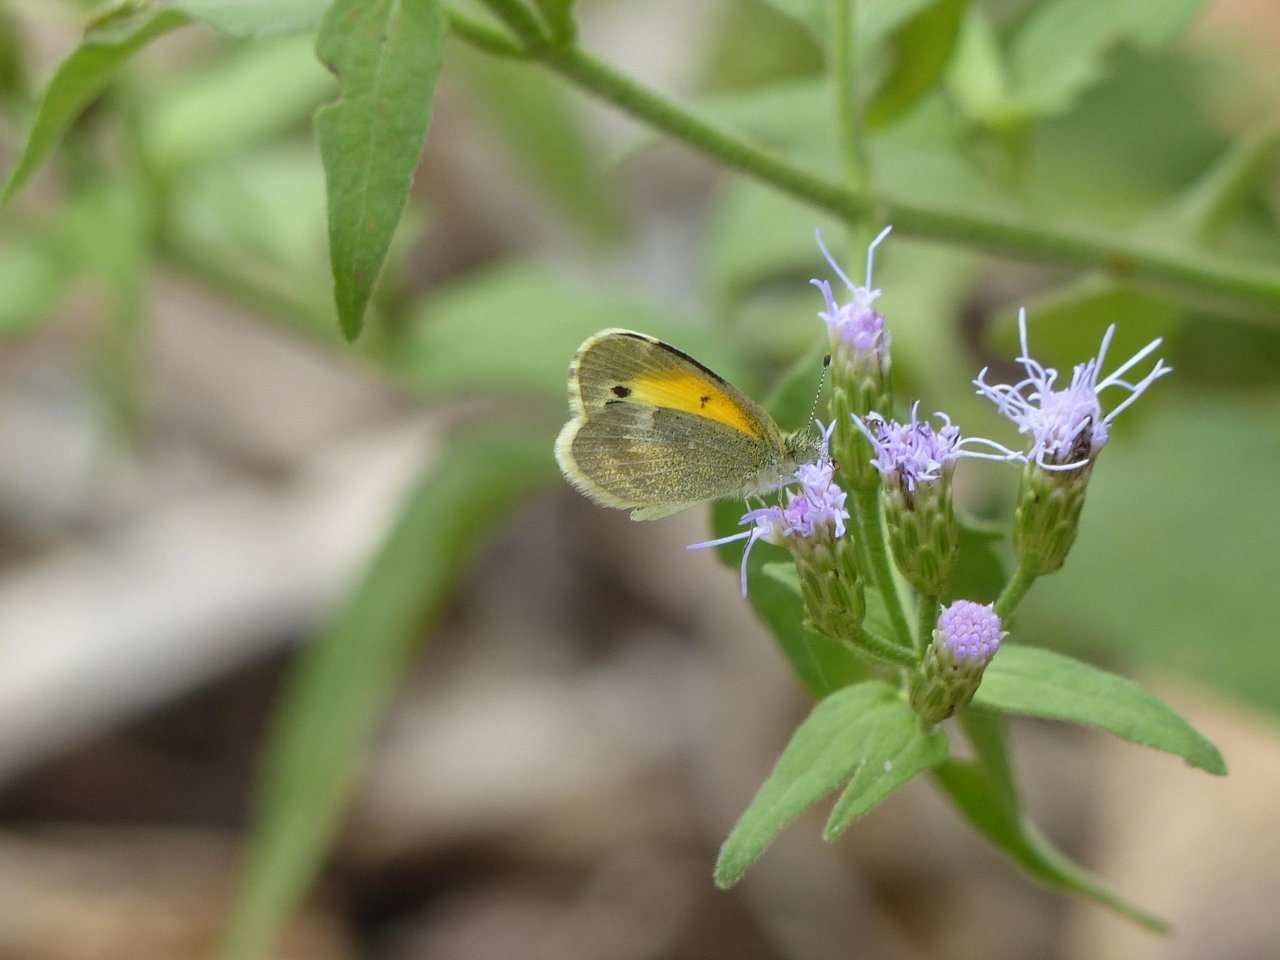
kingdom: Animalia
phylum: Arthropoda
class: Insecta
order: Lepidoptera
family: Pieridae
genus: Nathalis
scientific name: Nathalis iole
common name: Dainty Sulphur
